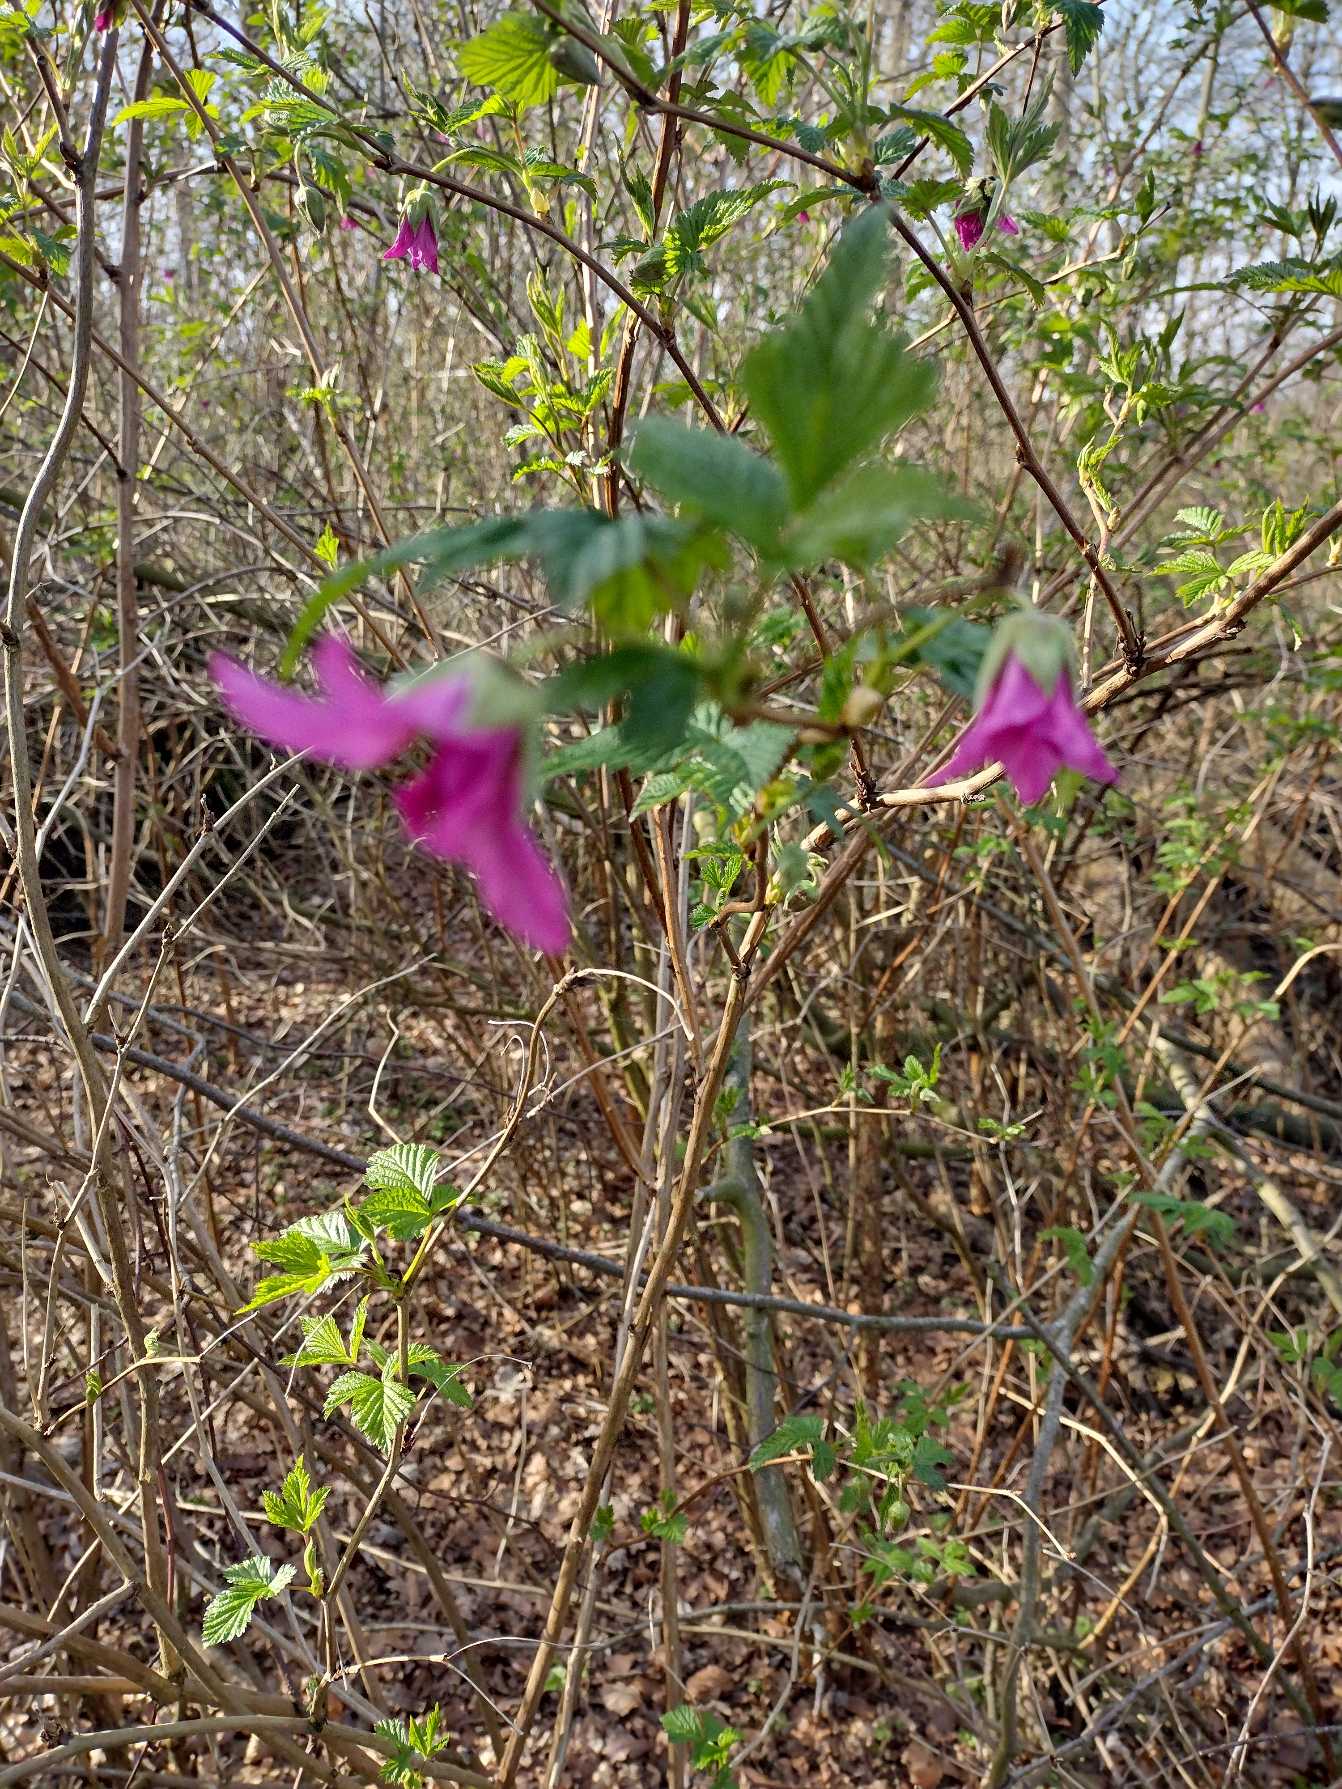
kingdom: Plantae
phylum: Tracheophyta
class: Magnoliopsida
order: Rosales
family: Rosaceae
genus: Rubus
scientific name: Rubus spectabilis
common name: Laksebær
